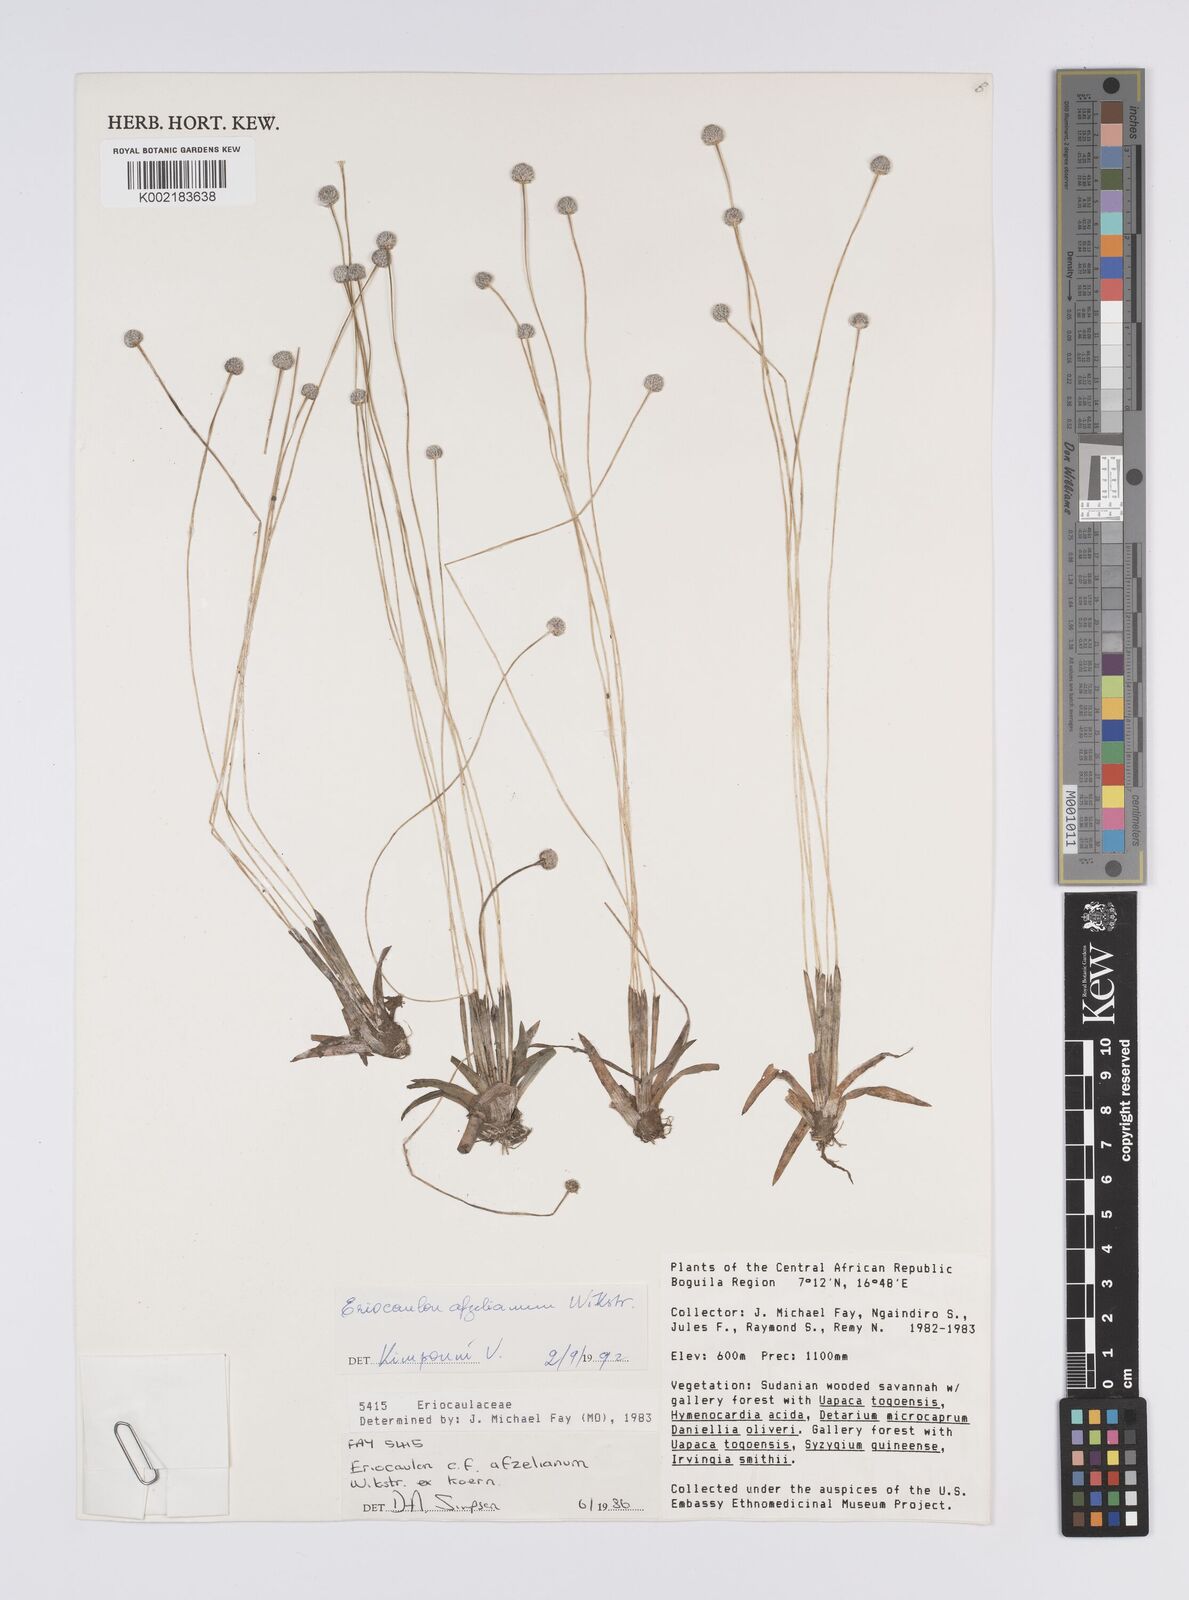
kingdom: Plantae
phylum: Tracheophyta
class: Liliopsida
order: Poales
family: Eriocaulaceae
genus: Eriocaulon
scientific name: Eriocaulon afzelianum
